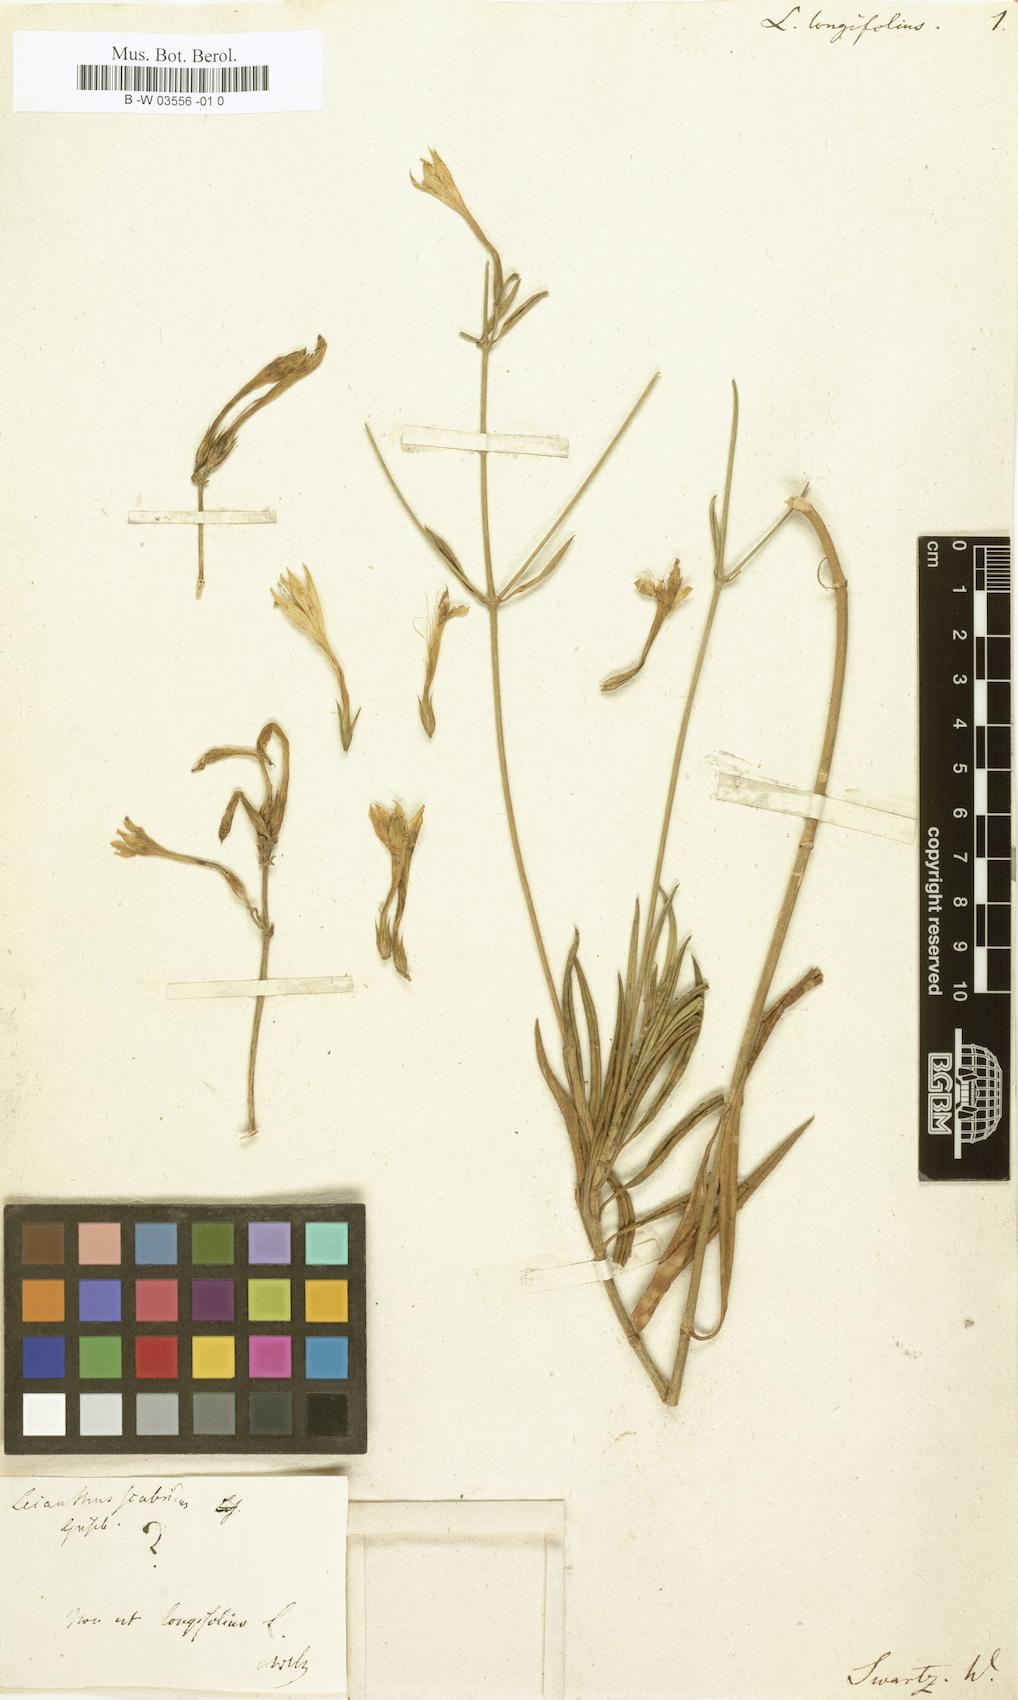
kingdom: Plantae
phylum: Tracheophyta
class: Magnoliopsida
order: Gentianales
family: Gentianaceae
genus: Lisianthus
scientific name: Lisianthus longifolius
